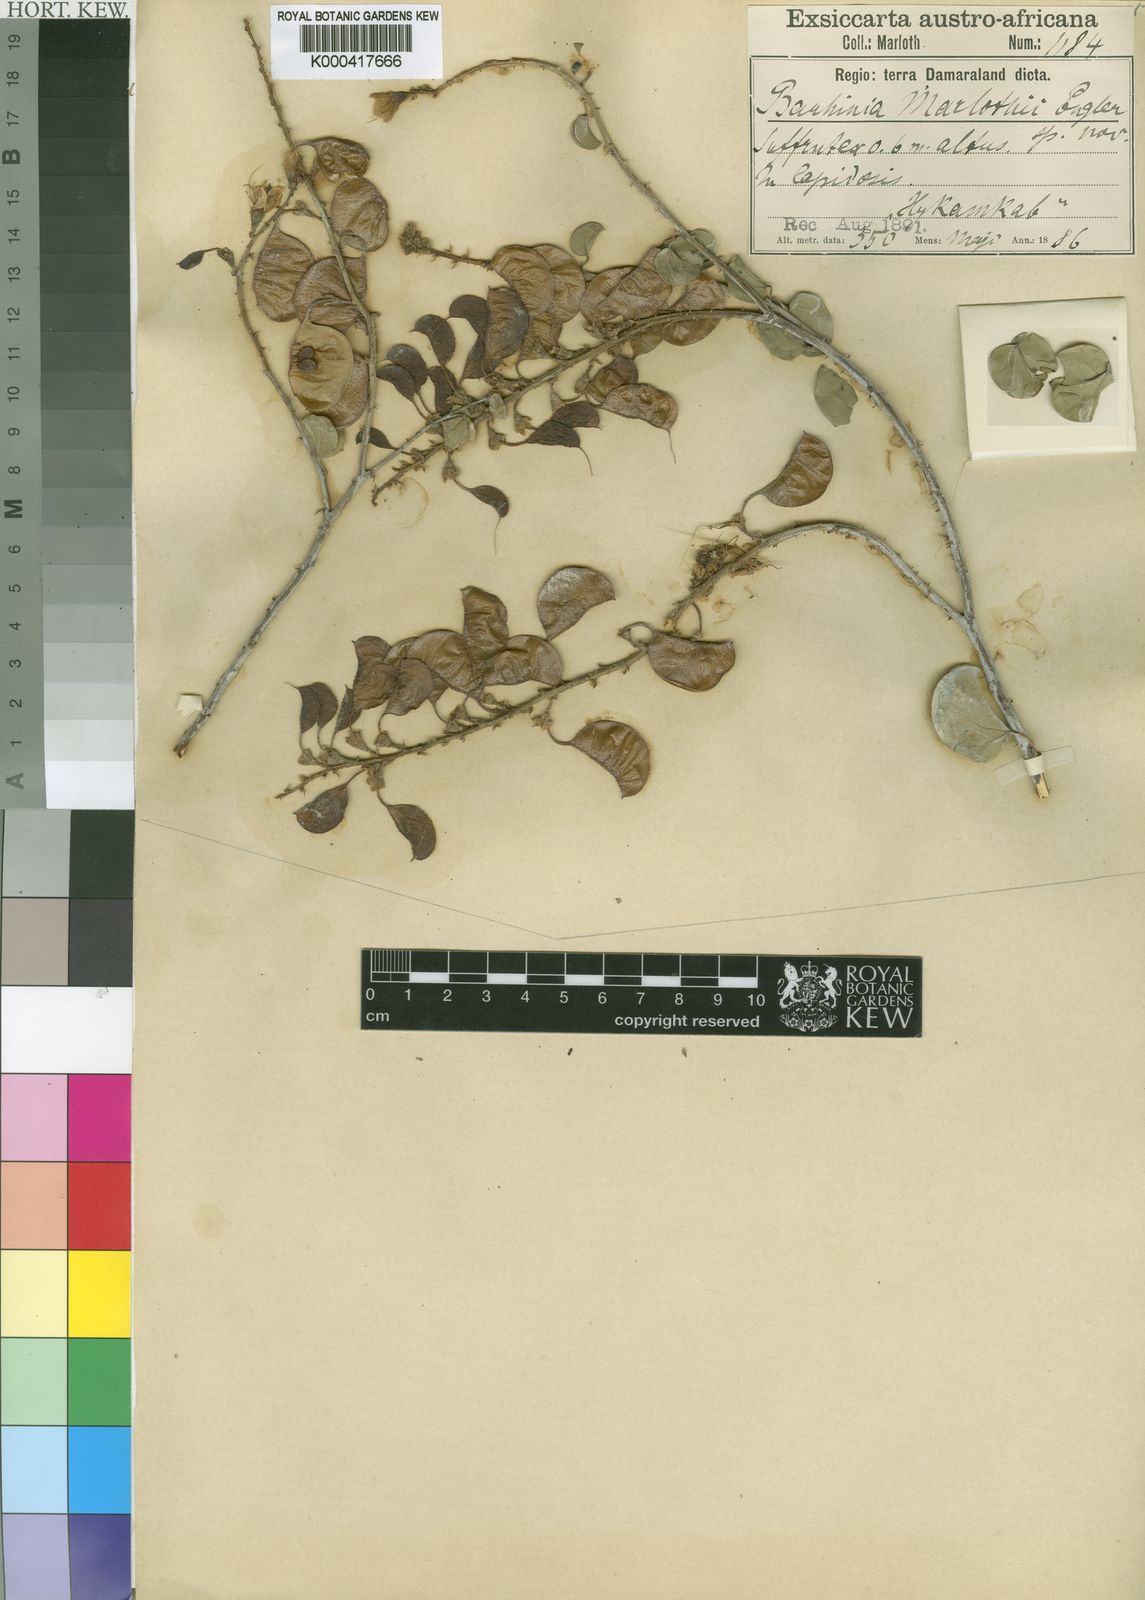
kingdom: Plantae
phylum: Tracheophyta
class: Magnoliopsida
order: Fabales
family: Fabaceae
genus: Adenolobus
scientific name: Adenolobus pechuelii
